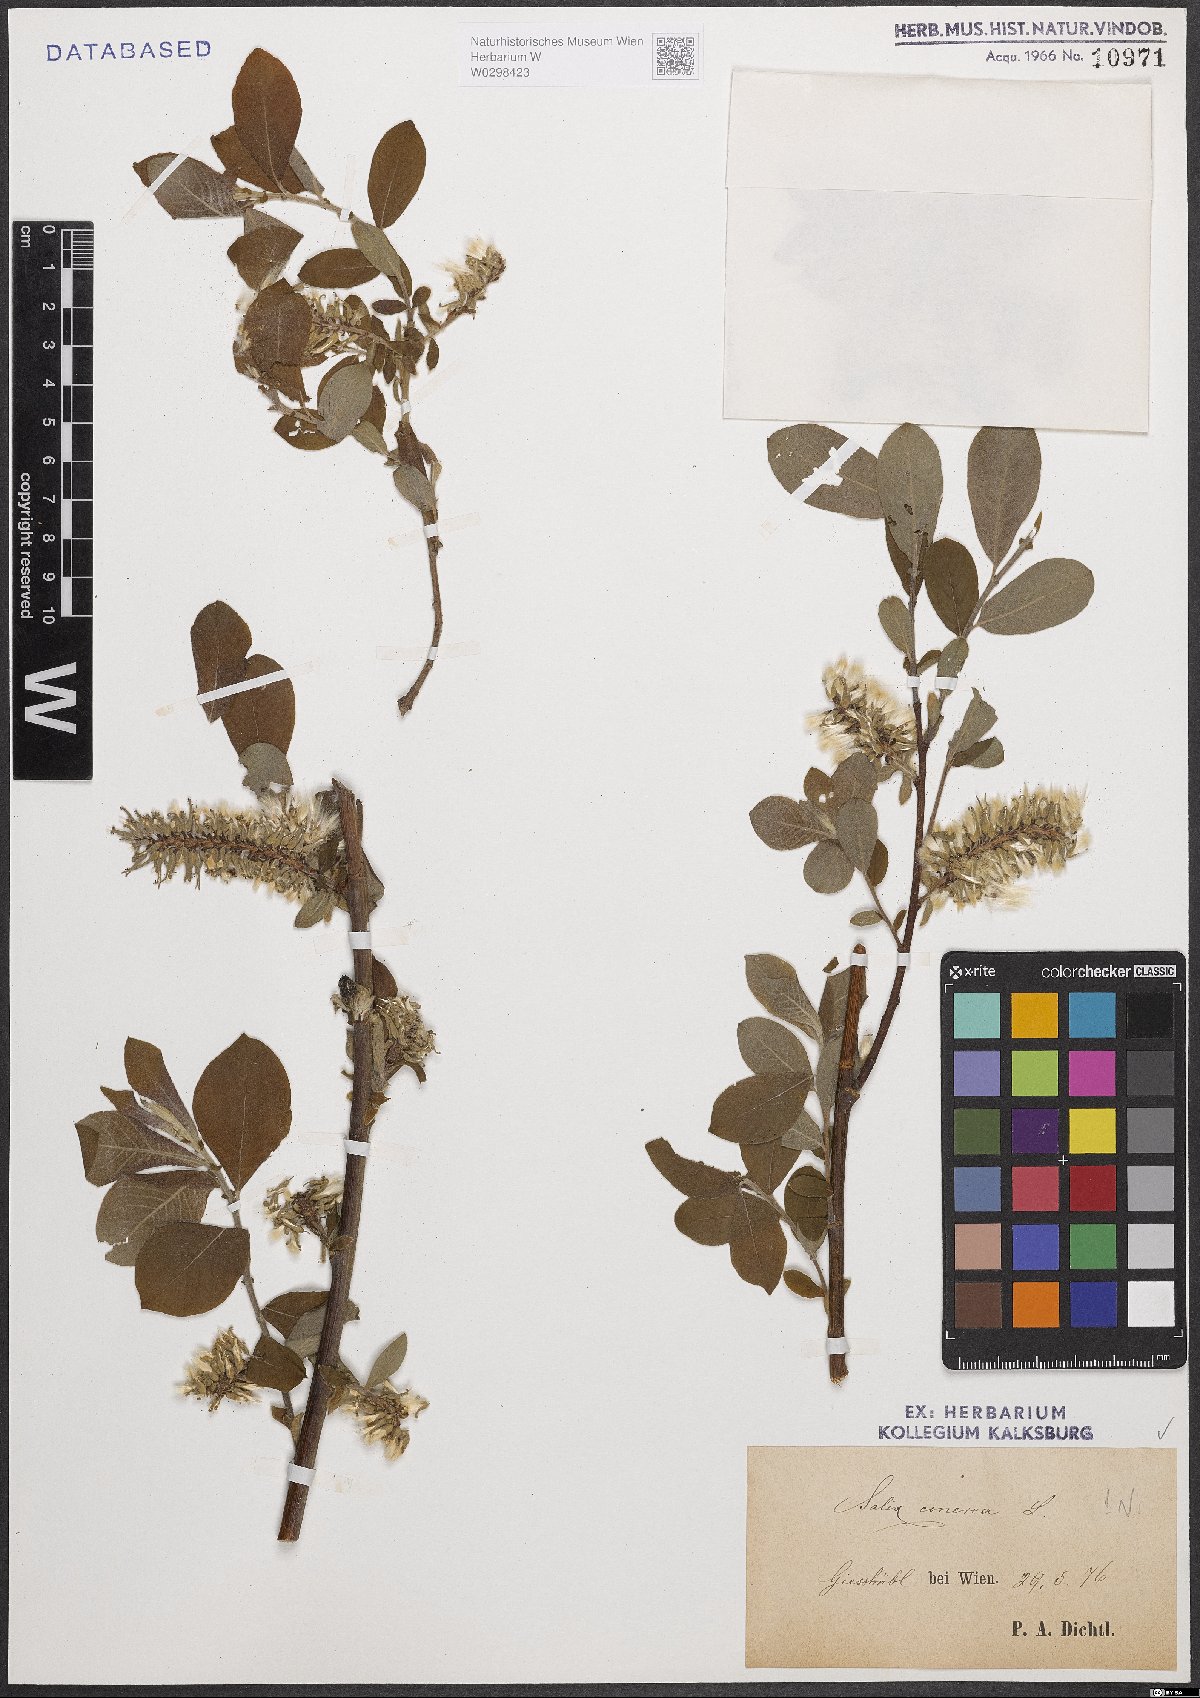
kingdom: Plantae
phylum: Tracheophyta
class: Magnoliopsida
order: Malpighiales
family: Salicaceae
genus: Salix
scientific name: Salix cinerea
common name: Common sallow
